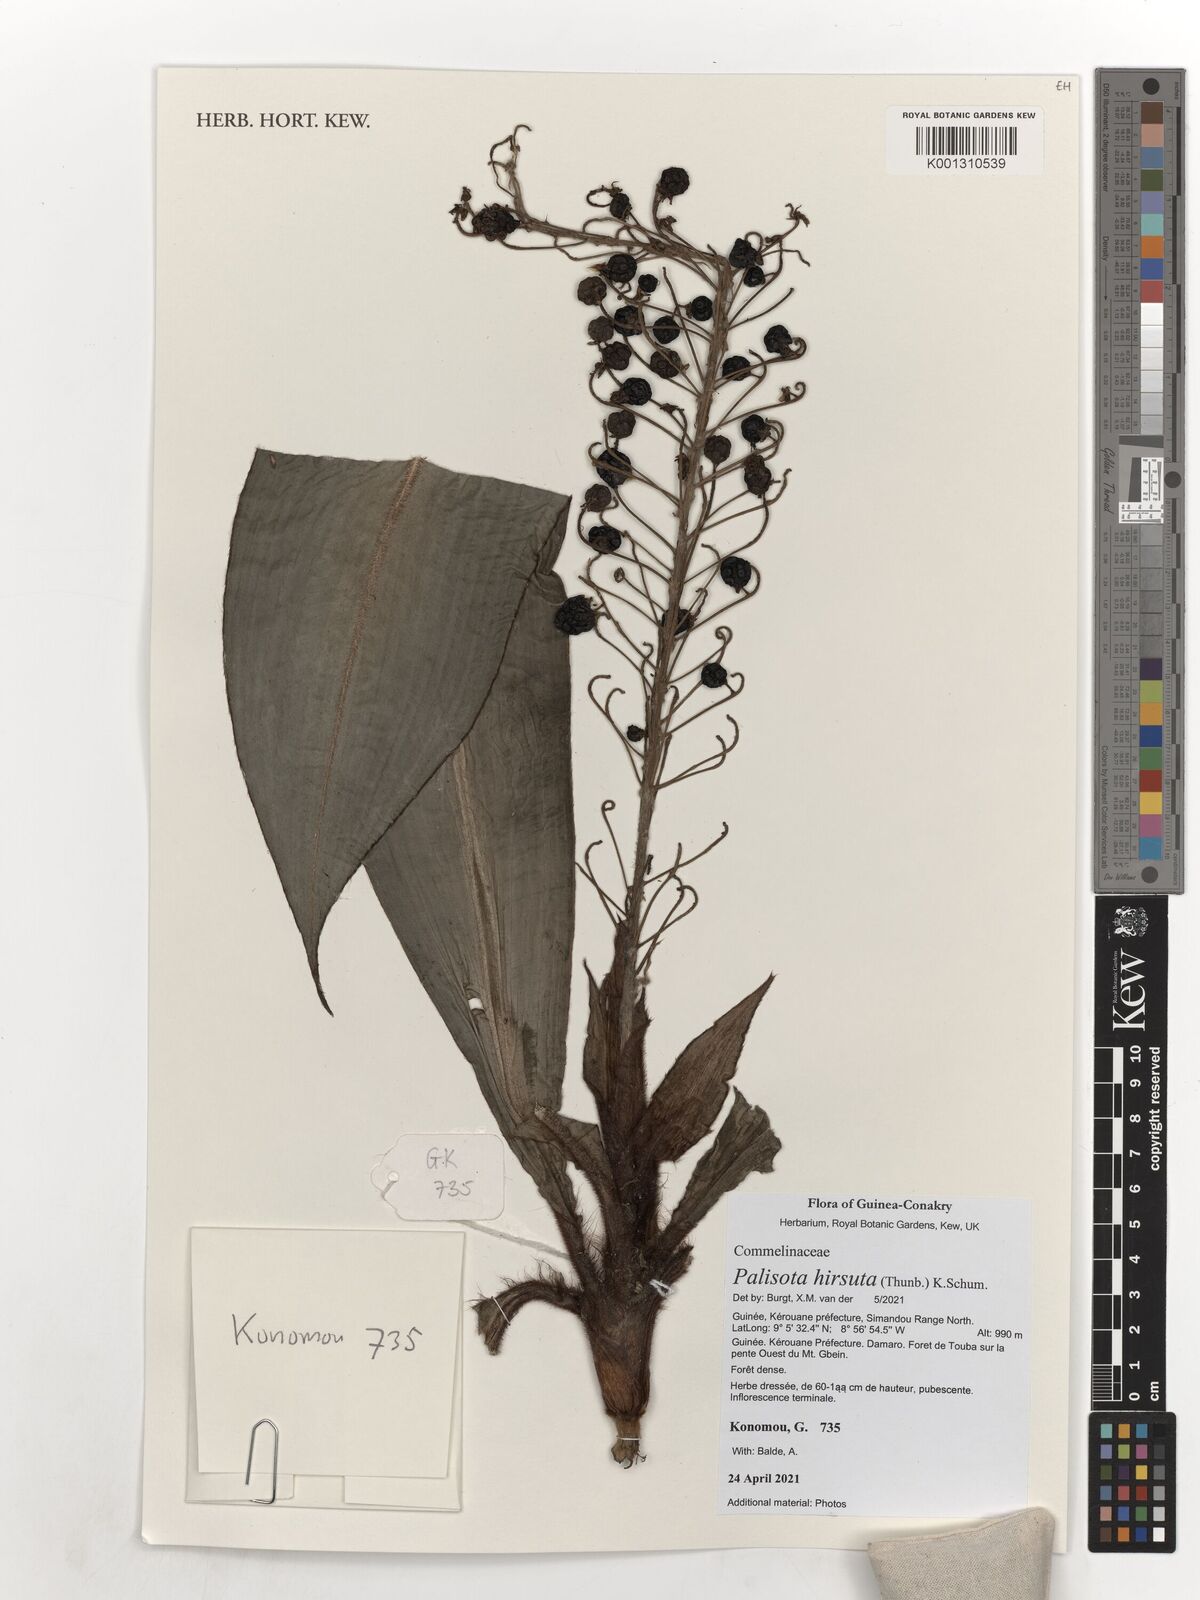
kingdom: Plantae
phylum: Tracheophyta
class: Liliopsida
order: Commelinales
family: Commelinaceae
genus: Palisota
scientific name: Palisota hirsuta
